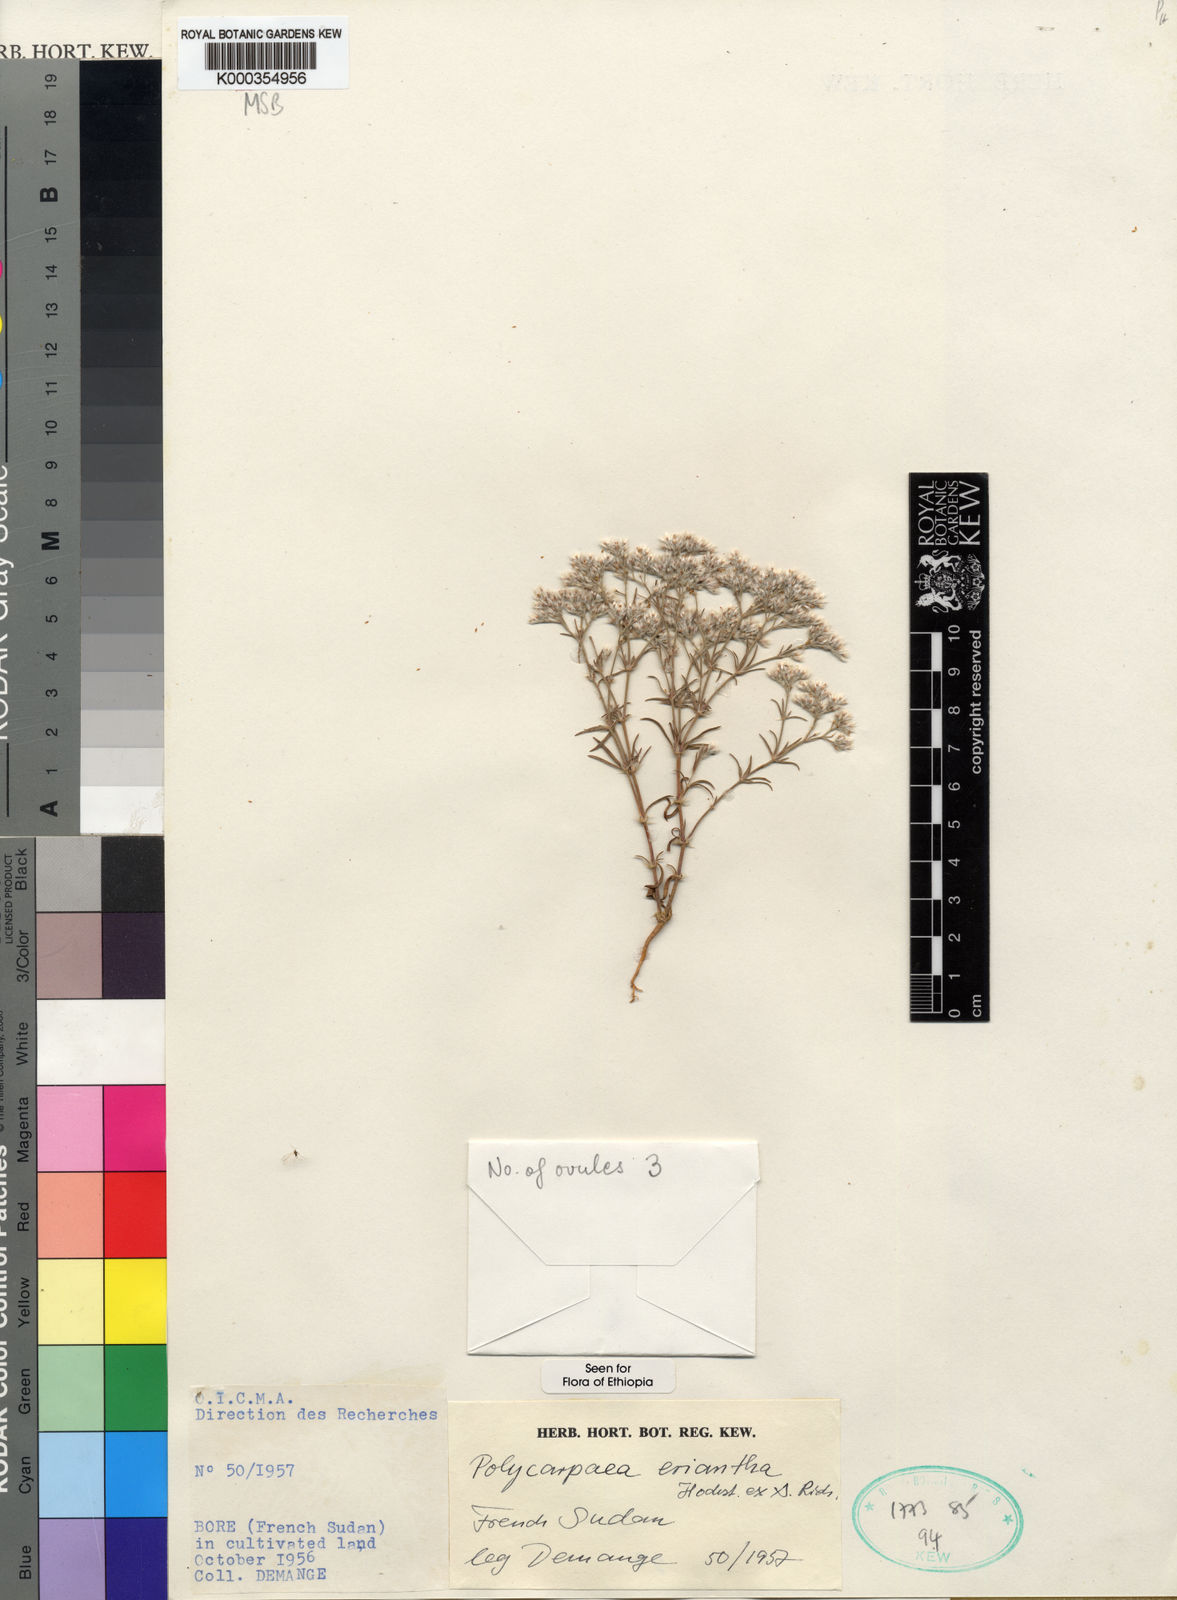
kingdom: Plantae
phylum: Tracheophyta
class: Magnoliopsida
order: Caryophyllales
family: Caryophyllaceae
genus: Polycarpaea
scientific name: Polycarpaea eriantha
